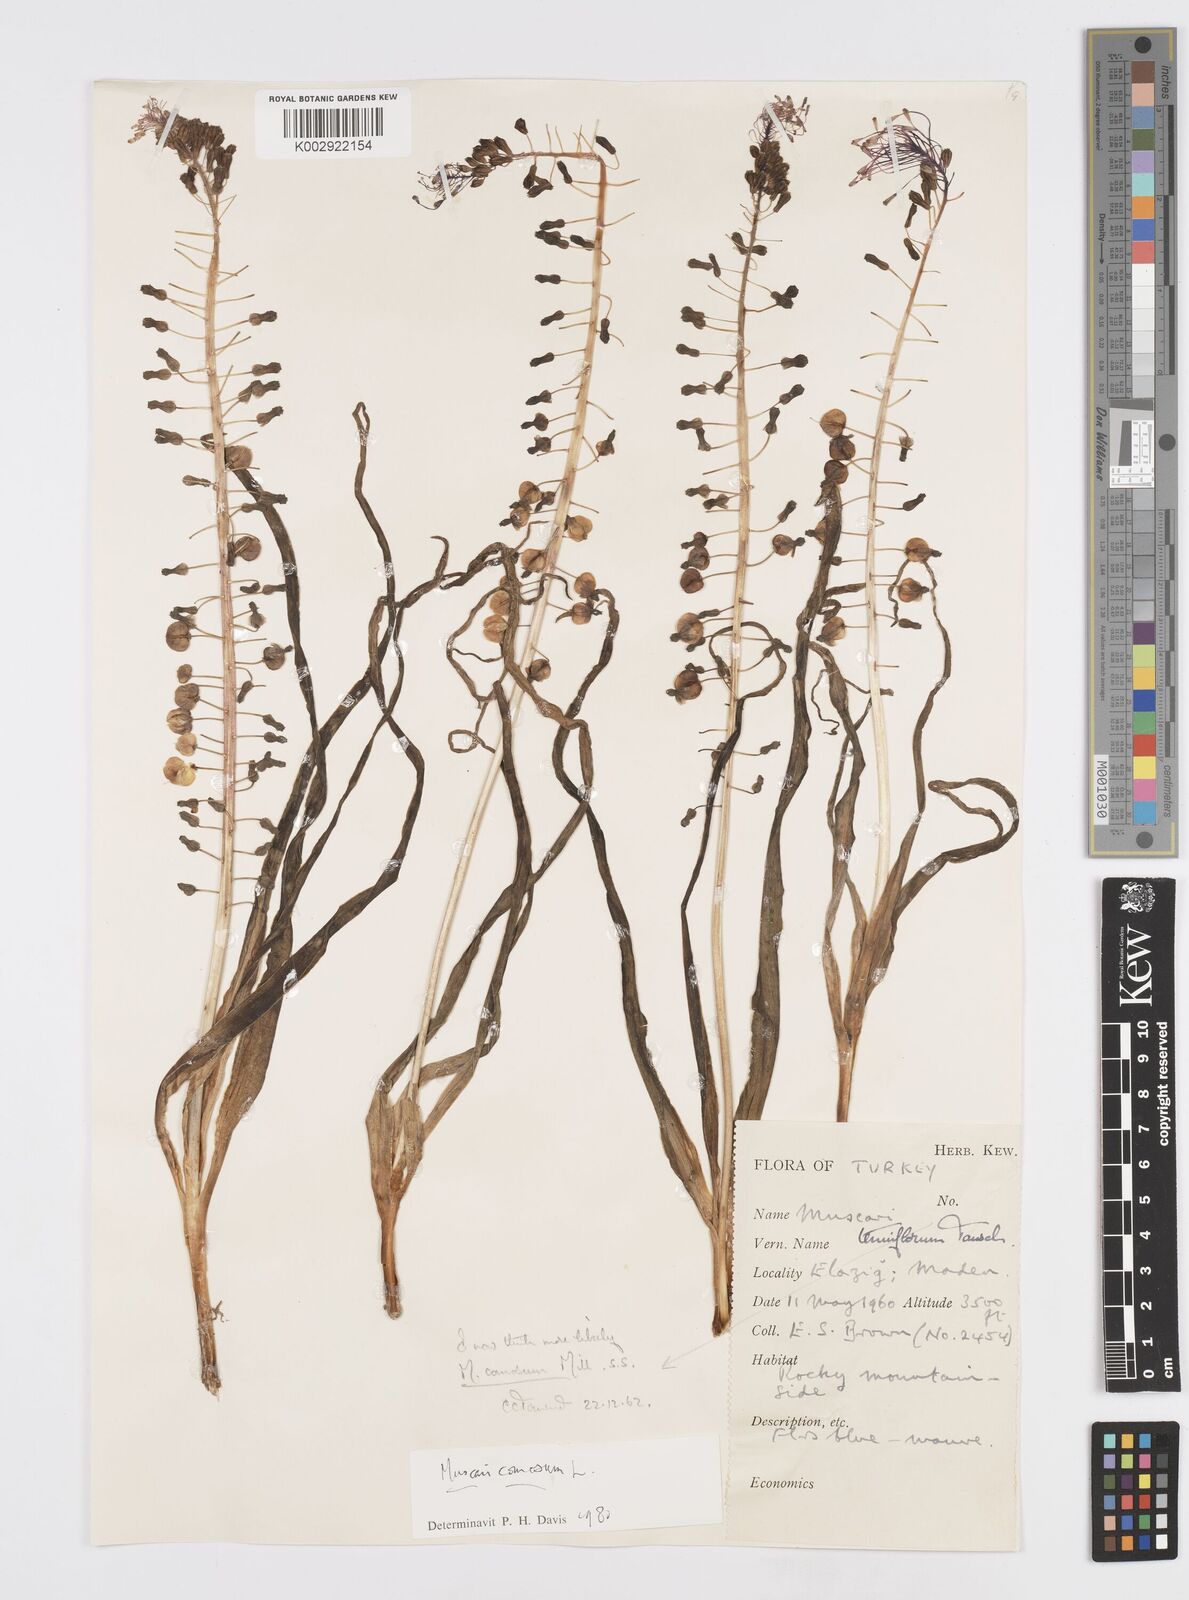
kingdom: Plantae
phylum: Tracheophyta
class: Liliopsida
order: Asparagales
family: Asparagaceae
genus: Muscari
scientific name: Muscari comosum
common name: Tassel hyacinth
